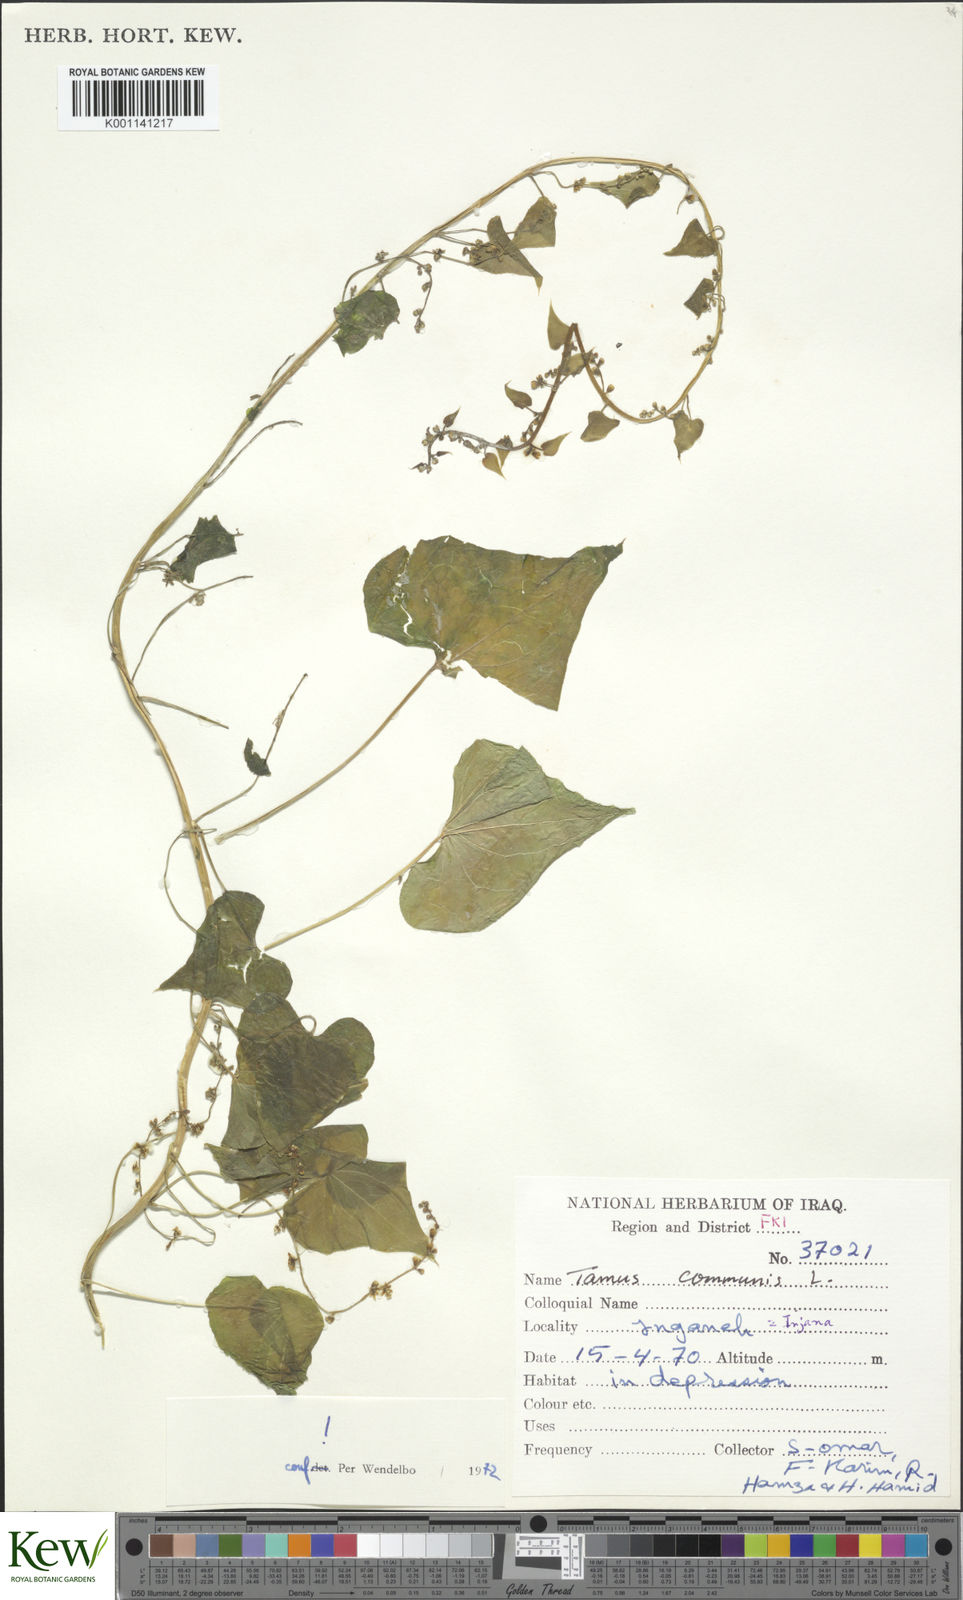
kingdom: Plantae
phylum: Tracheophyta
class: Liliopsida
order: Dioscoreales
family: Dioscoreaceae
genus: Dioscorea
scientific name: Dioscorea communis
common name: Black-bindweed
